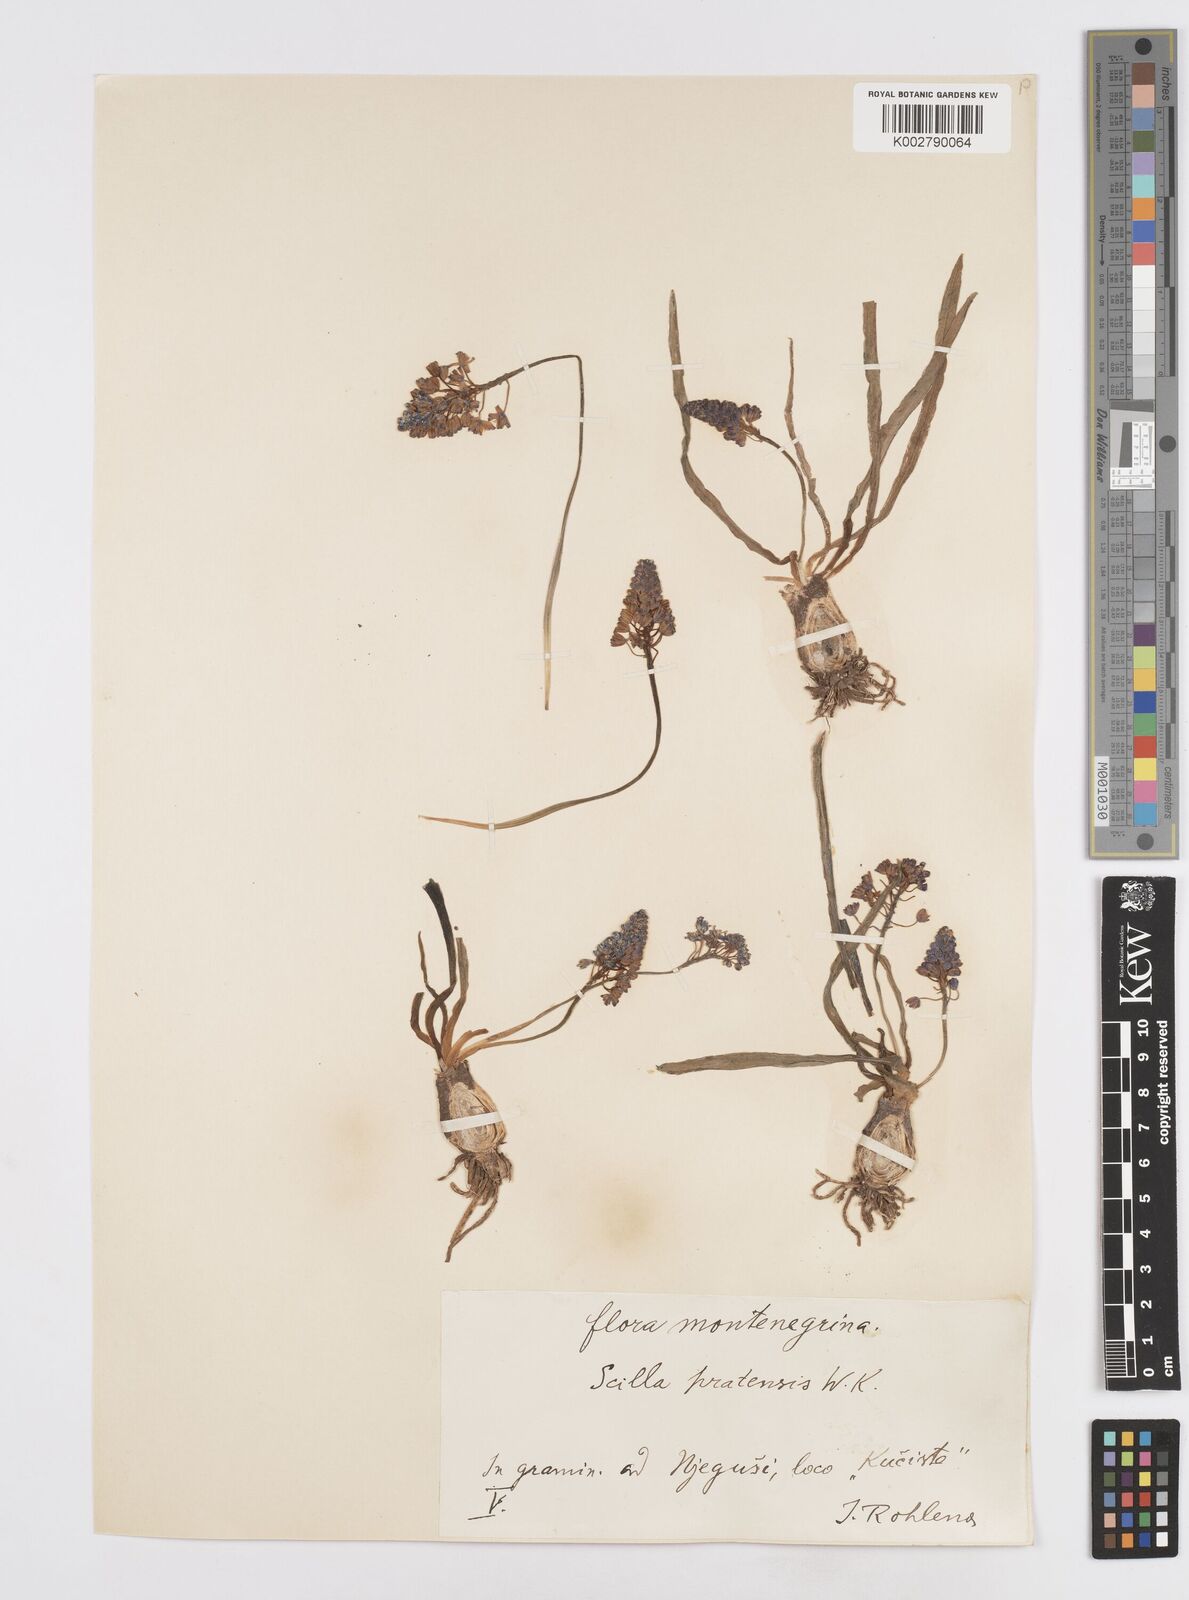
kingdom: Plantae
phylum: Tracheophyta
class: Liliopsida
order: Asparagales
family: Asparagaceae
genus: Scilla
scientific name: Scilla litardierei
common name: Amethyst meadow squill
